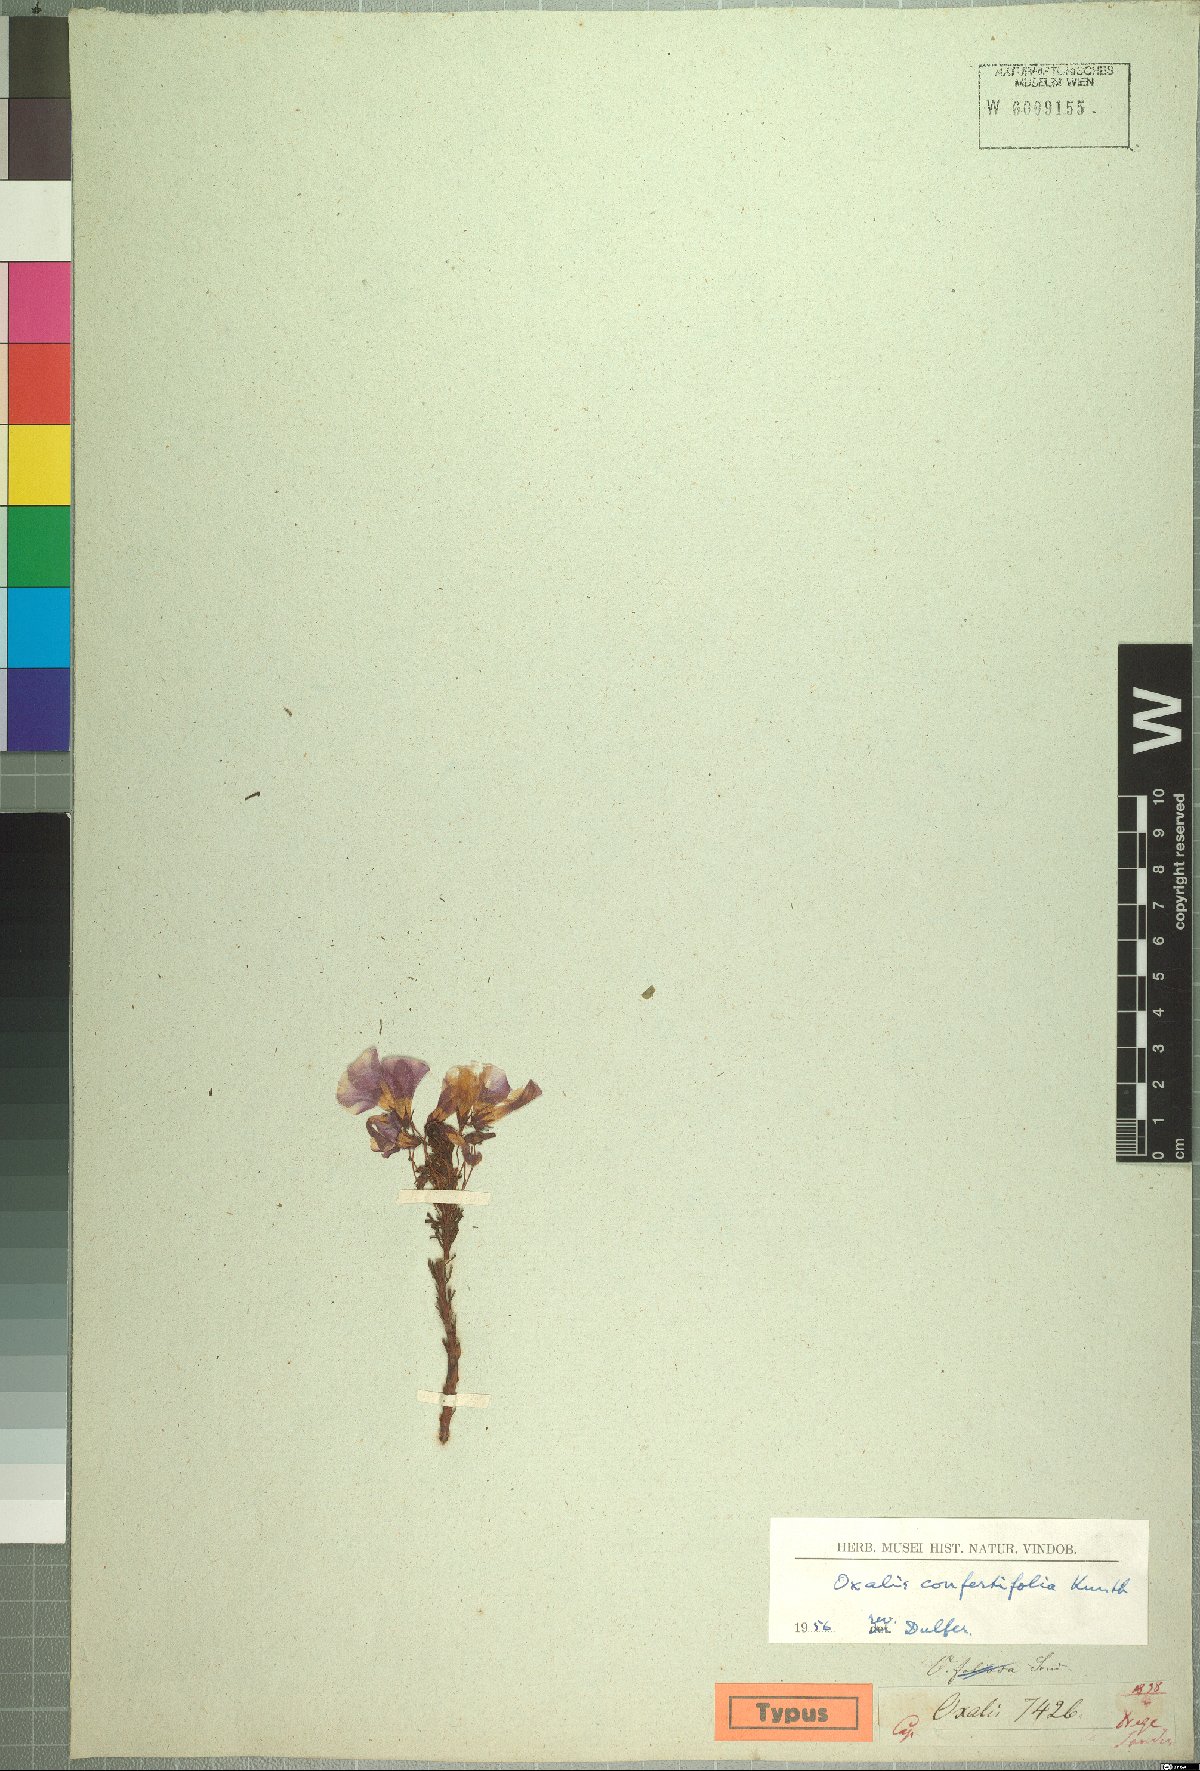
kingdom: Plantae
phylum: Tracheophyta
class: Magnoliopsida
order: Oxalidales
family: Oxalidaceae
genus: Oxalis
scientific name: Oxalis confertifolia
